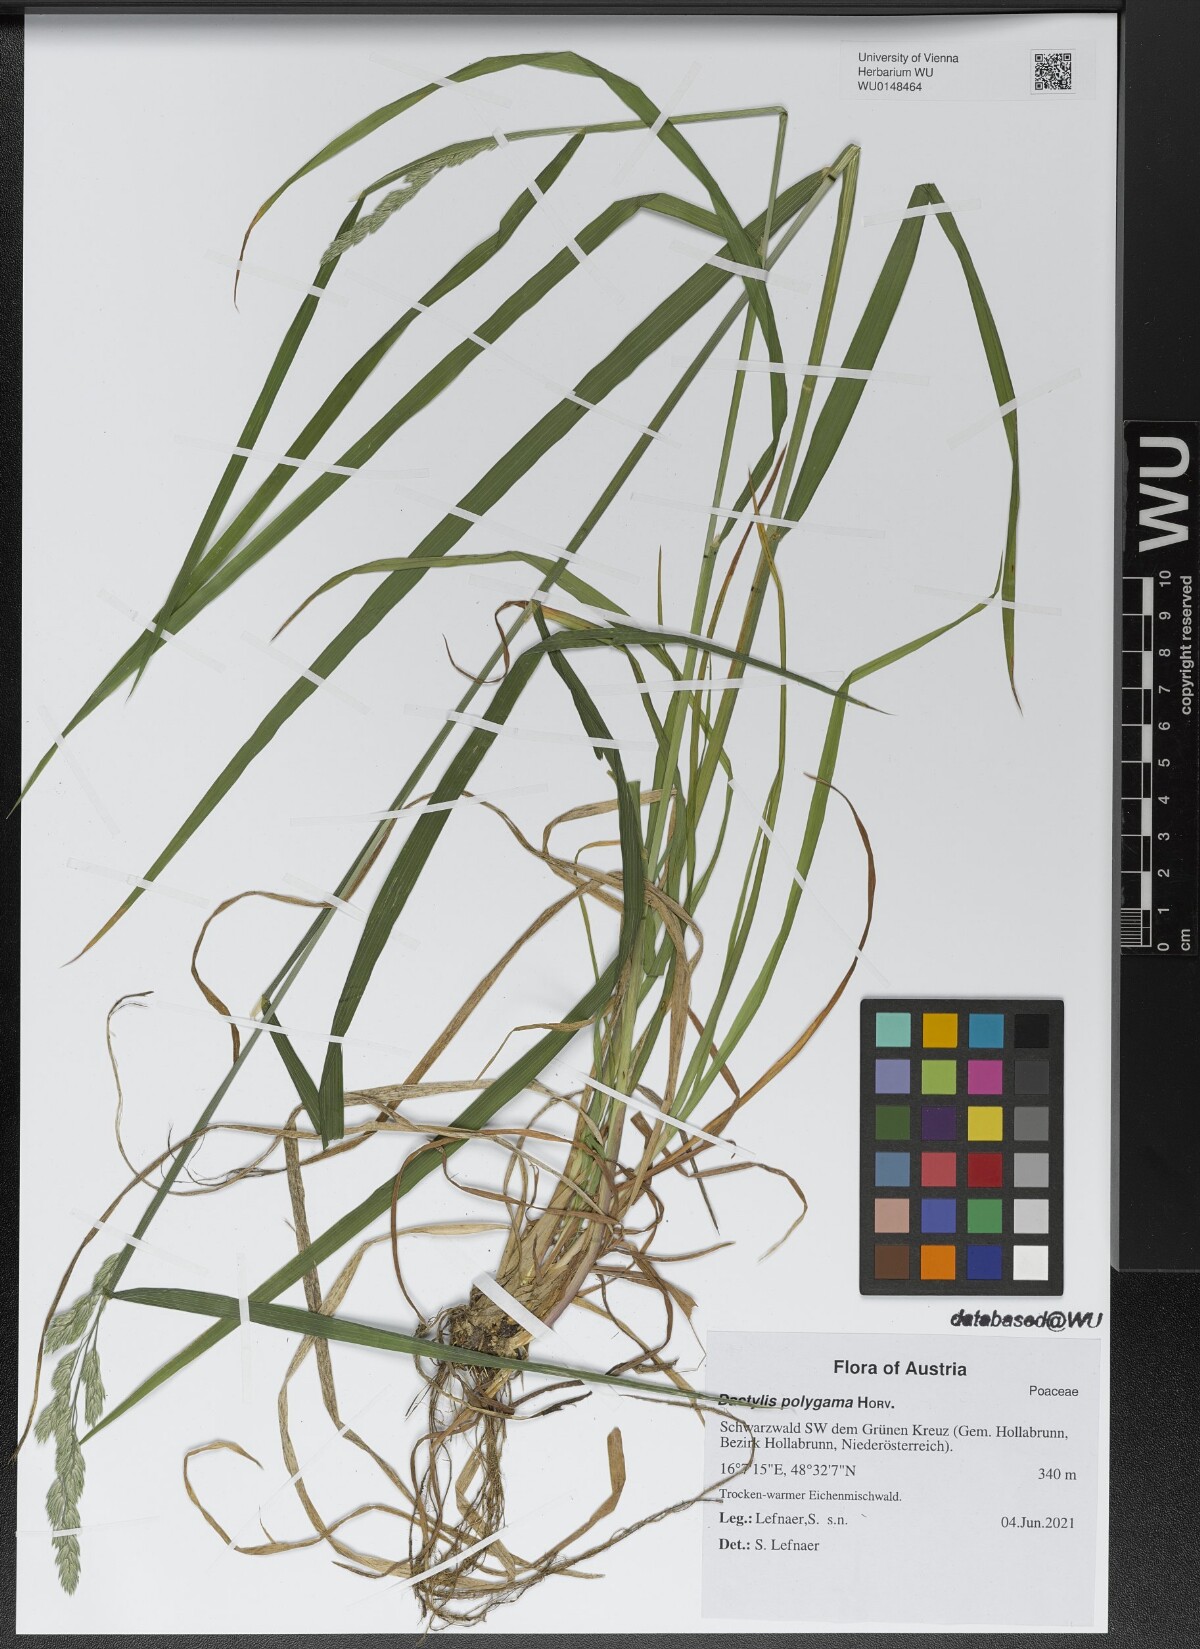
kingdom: Plantae
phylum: Tracheophyta
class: Liliopsida
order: Poales
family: Poaceae
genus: Dactylis
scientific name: Dactylis glomerata
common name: Orchardgrass
